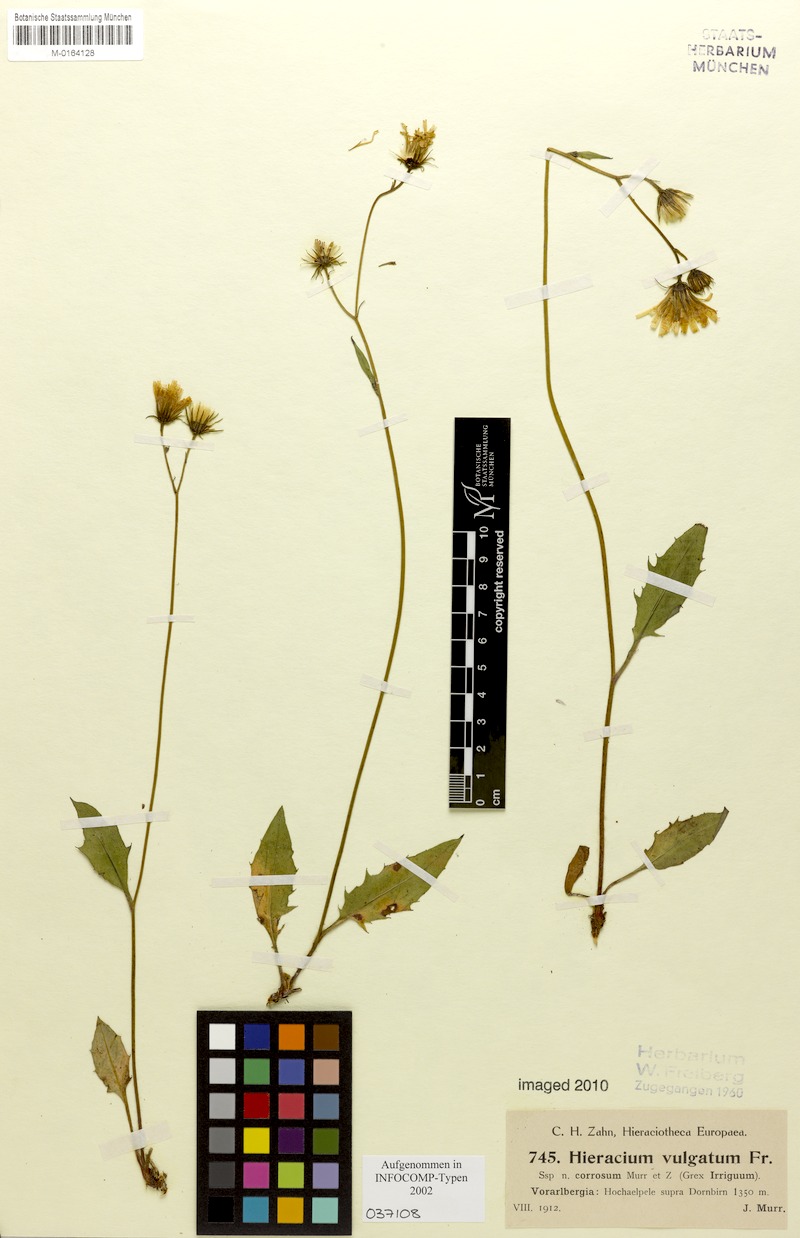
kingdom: Plantae
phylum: Tracheophyta
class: Magnoliopsida
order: Asterales
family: Asteraceae
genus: Hieracium
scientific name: Hieracium lachenalii
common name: Common hawkweed
